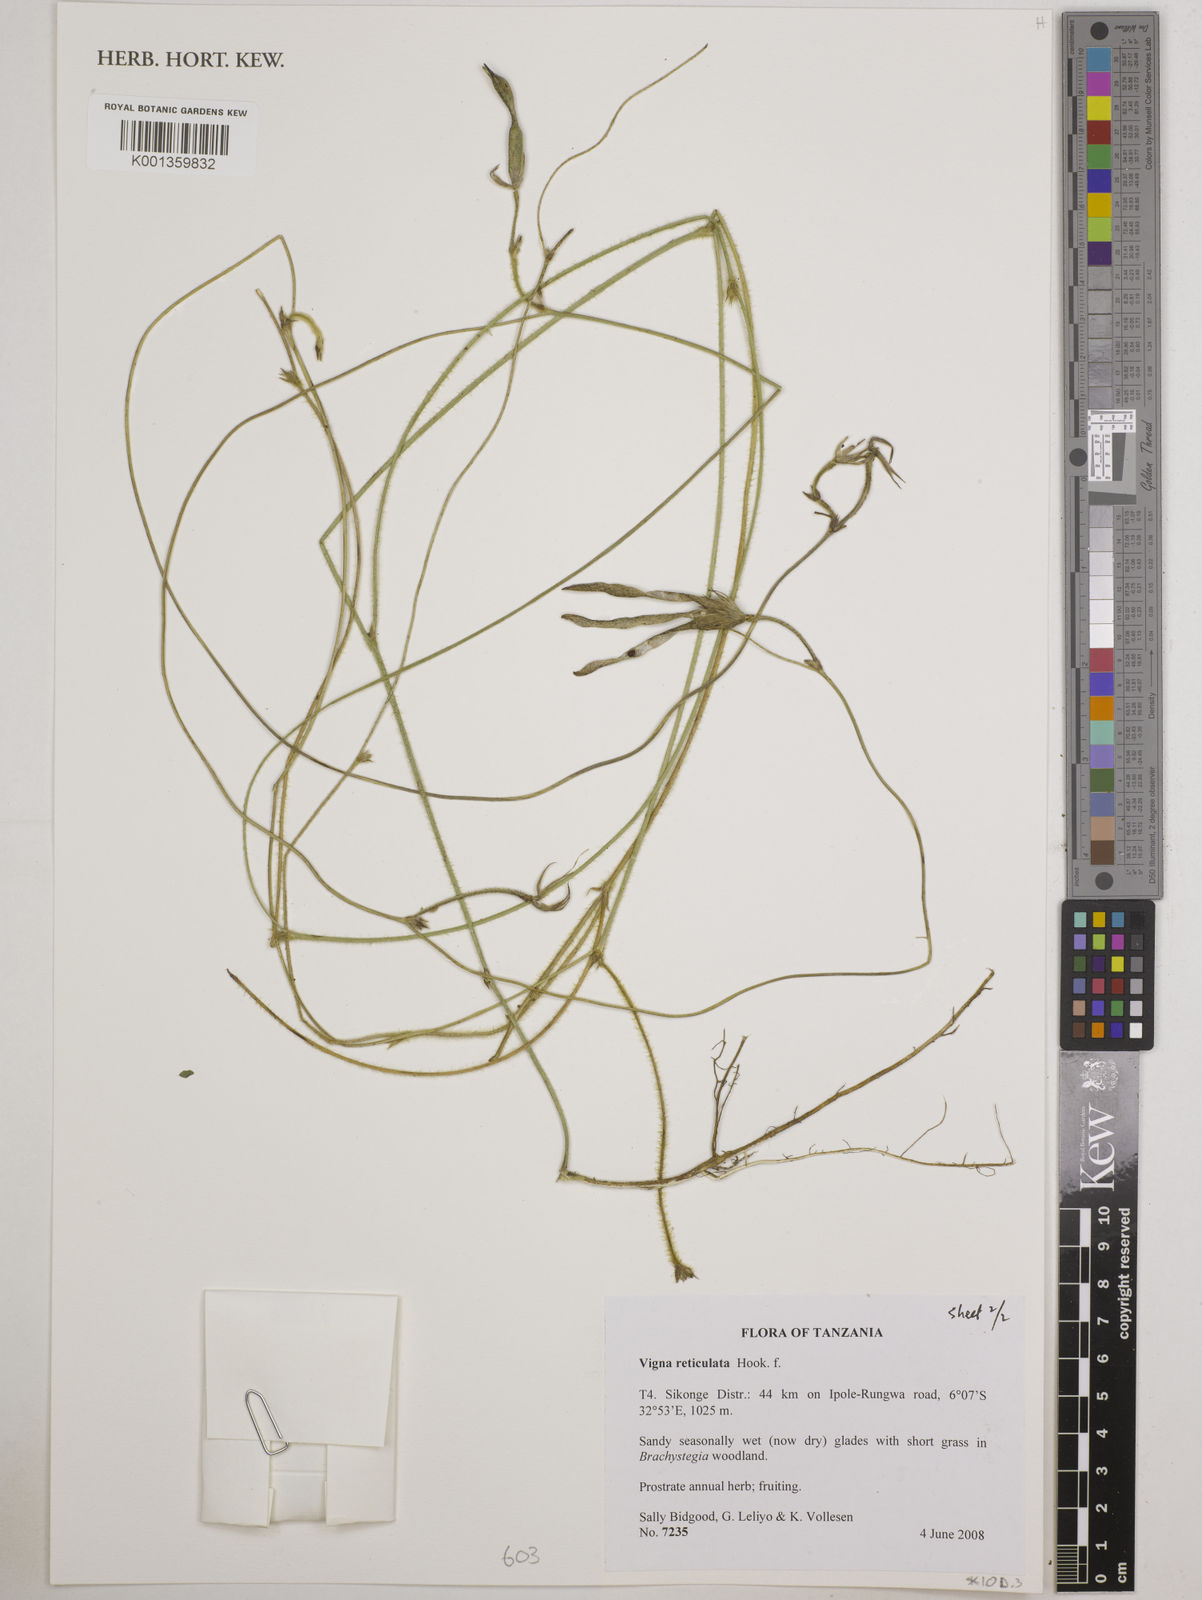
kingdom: Plantae
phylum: Tracheophyta
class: Magnoliopsida
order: Fabales
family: Fabaceae
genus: Vigna
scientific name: Vigna reticulata
